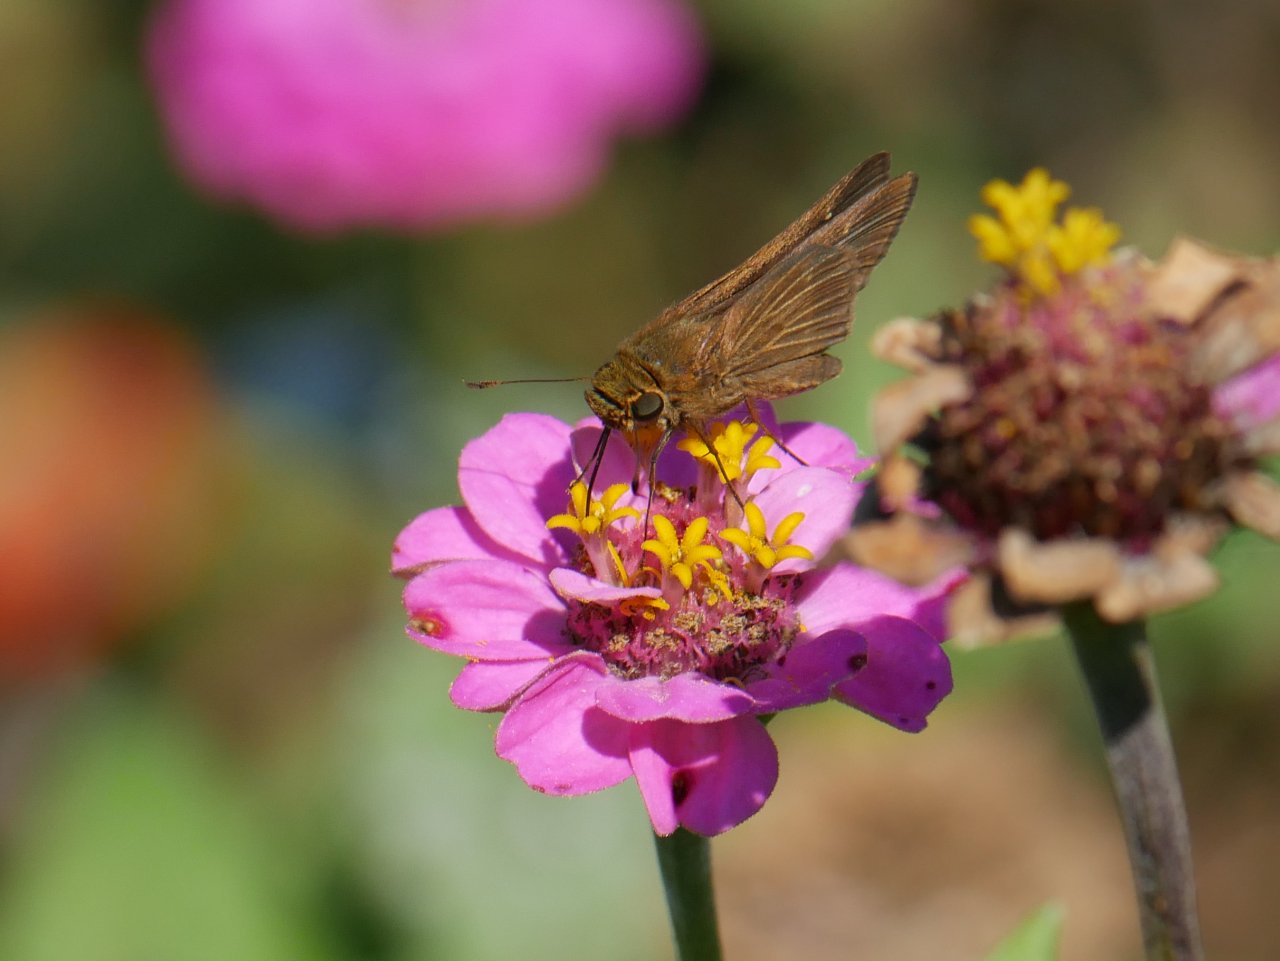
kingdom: Animalia
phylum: Arthropoda
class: Insecta
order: Lepidoptera
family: Hesperiidae
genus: Panoquina
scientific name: Panoquina ocola
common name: Ocola Skipper
